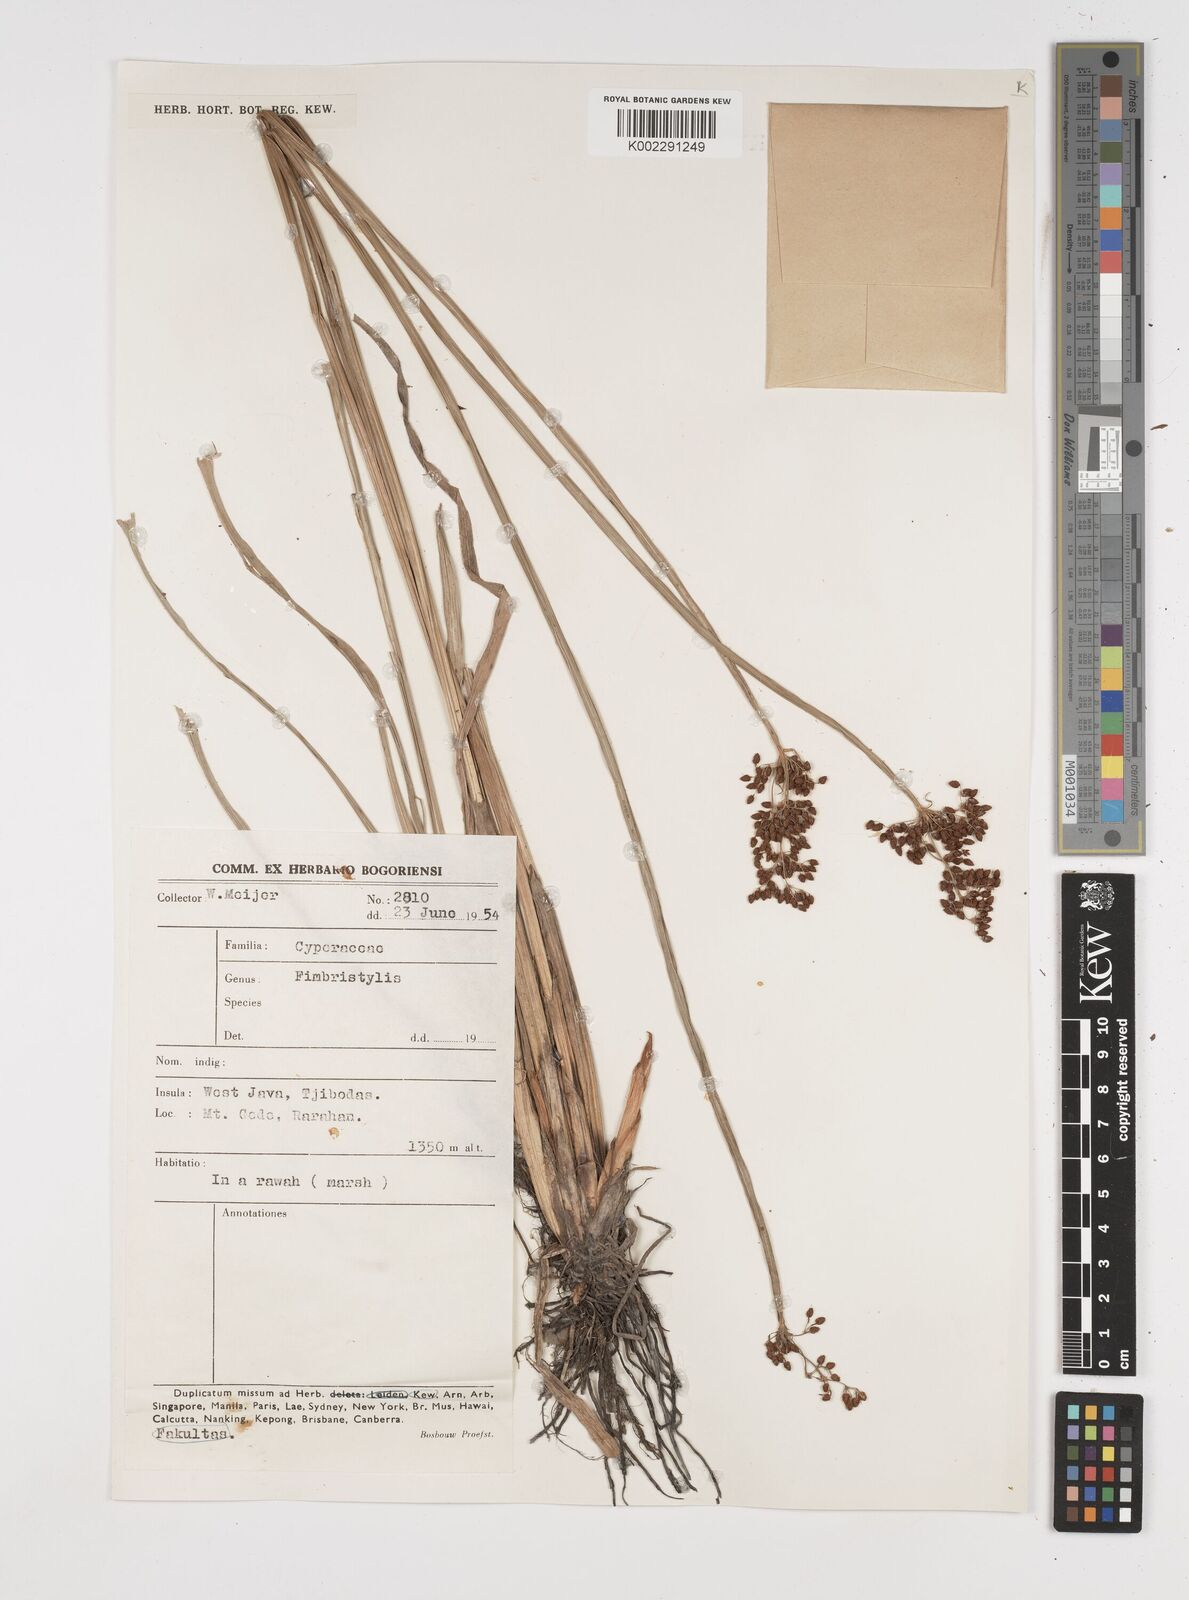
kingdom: Plantae
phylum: Tracheophyta
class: Liliopsida
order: Poales
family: Cyperaceae
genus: Fimbristylis
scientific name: Fimbristylis
